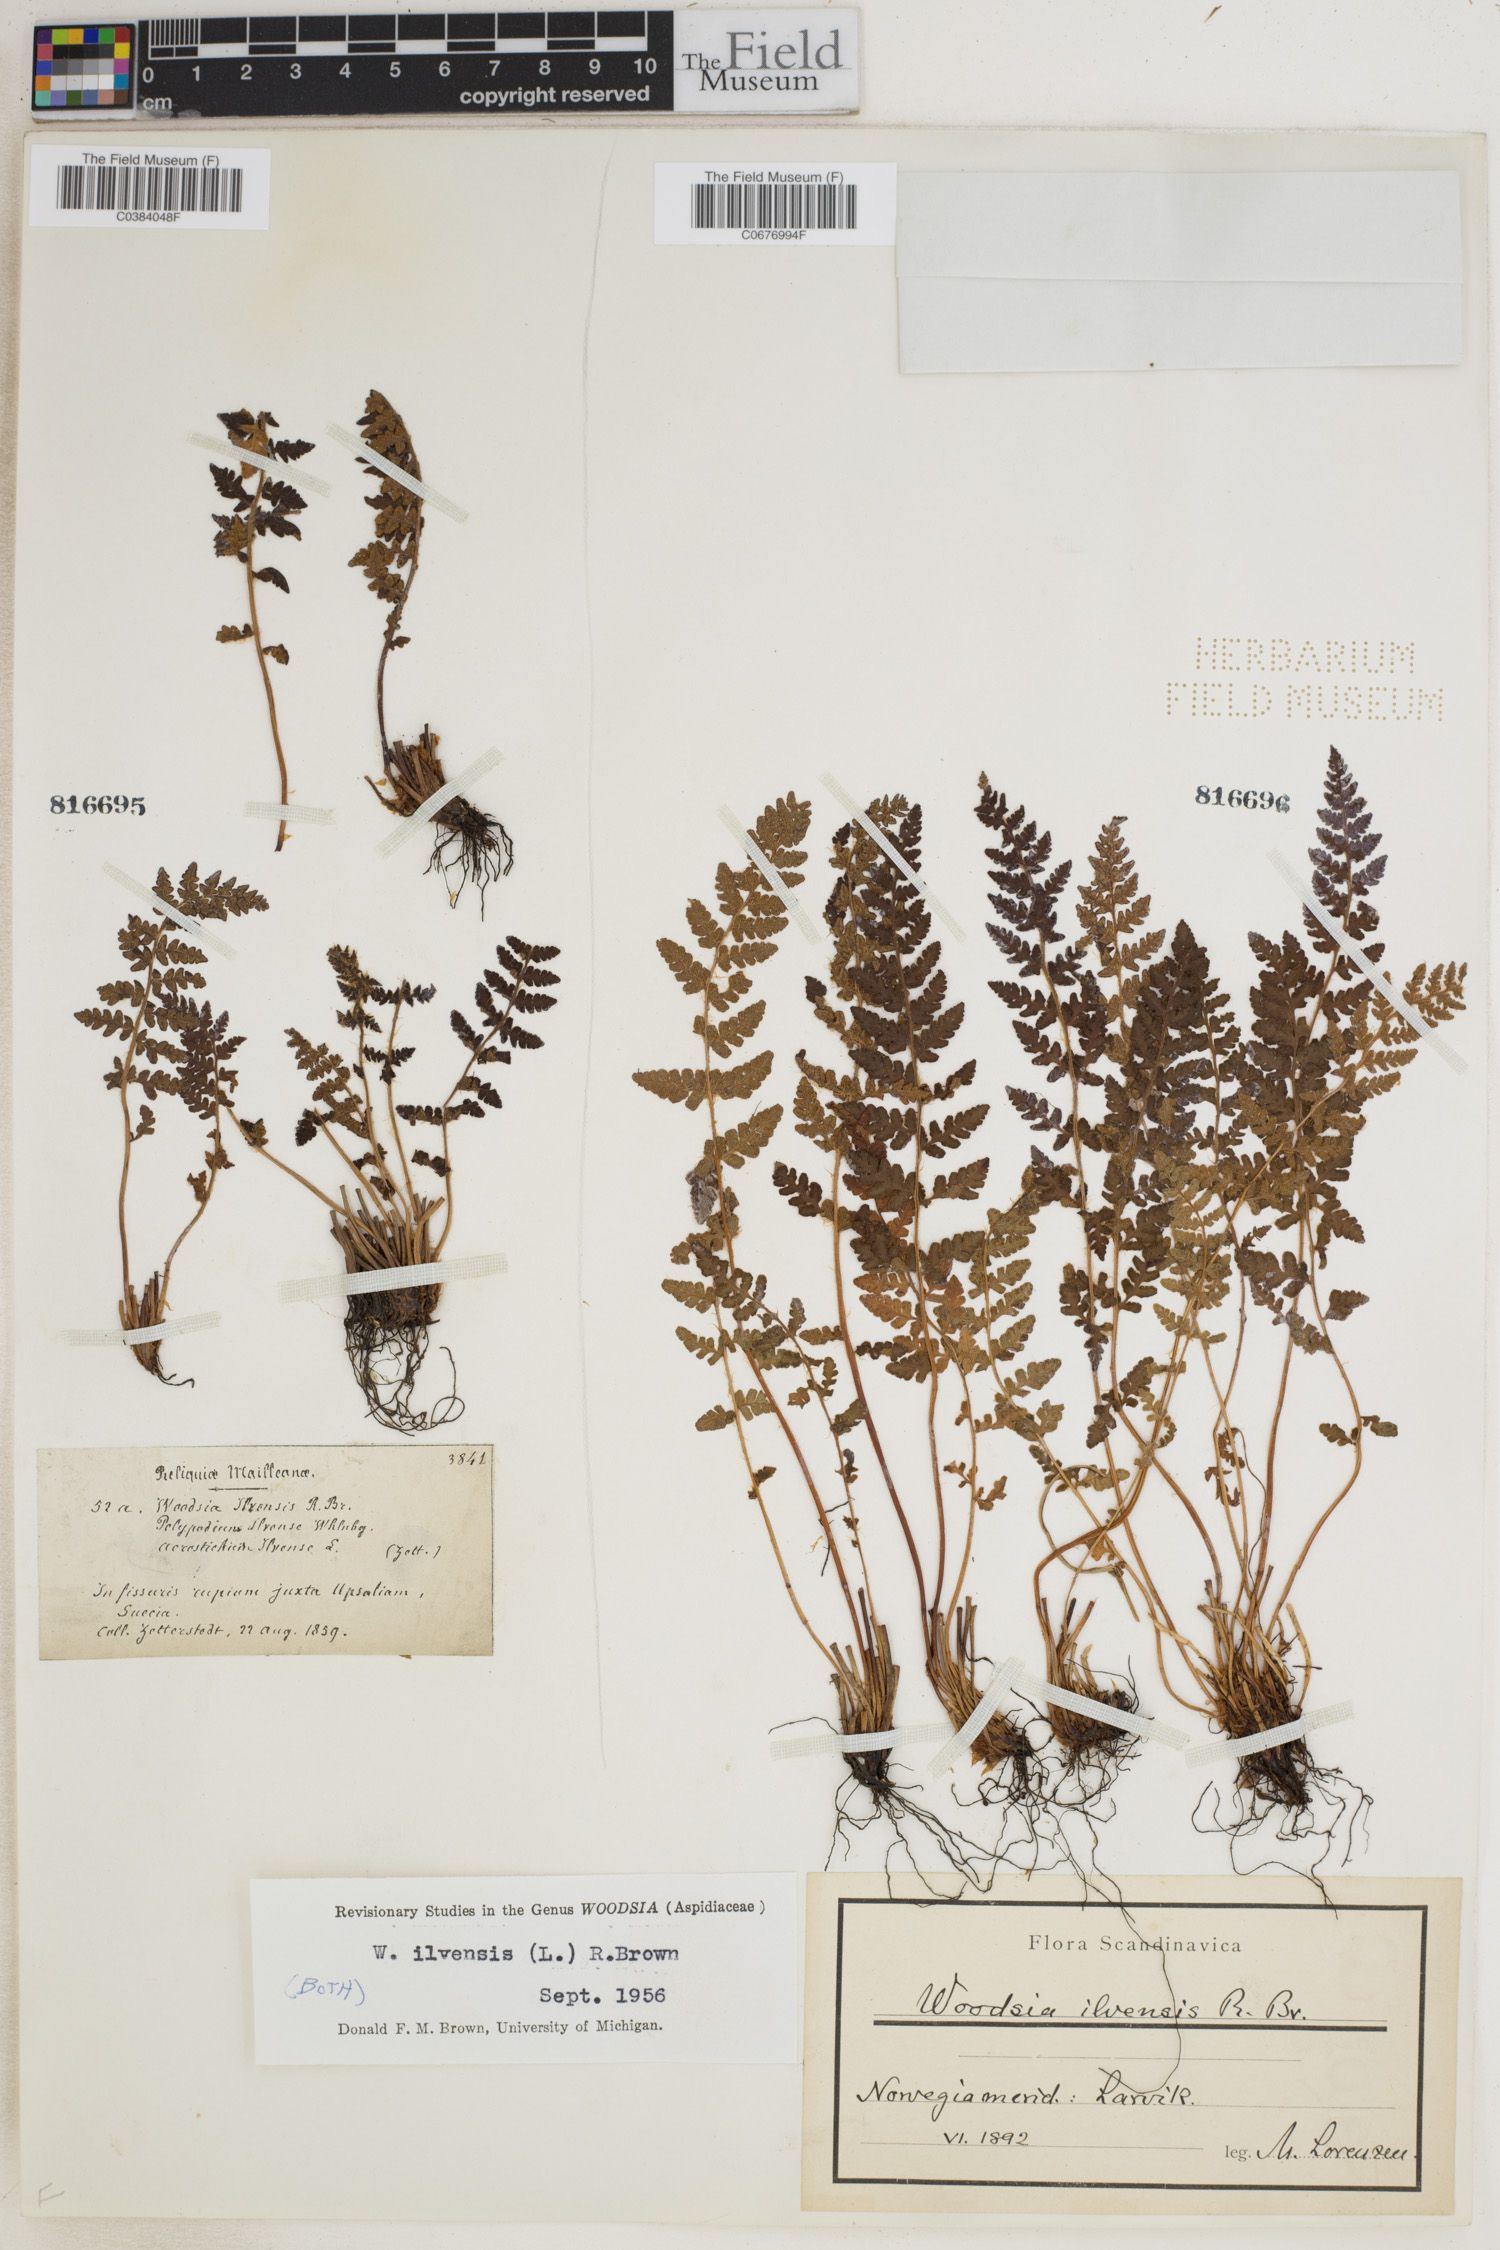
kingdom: Plantae
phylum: Tracheophyta
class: Polypodiopsida
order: Polypodiales
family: Woodsiaceae
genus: Woodsia
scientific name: Woodsia ilvensis
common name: Fragrant woodsia
